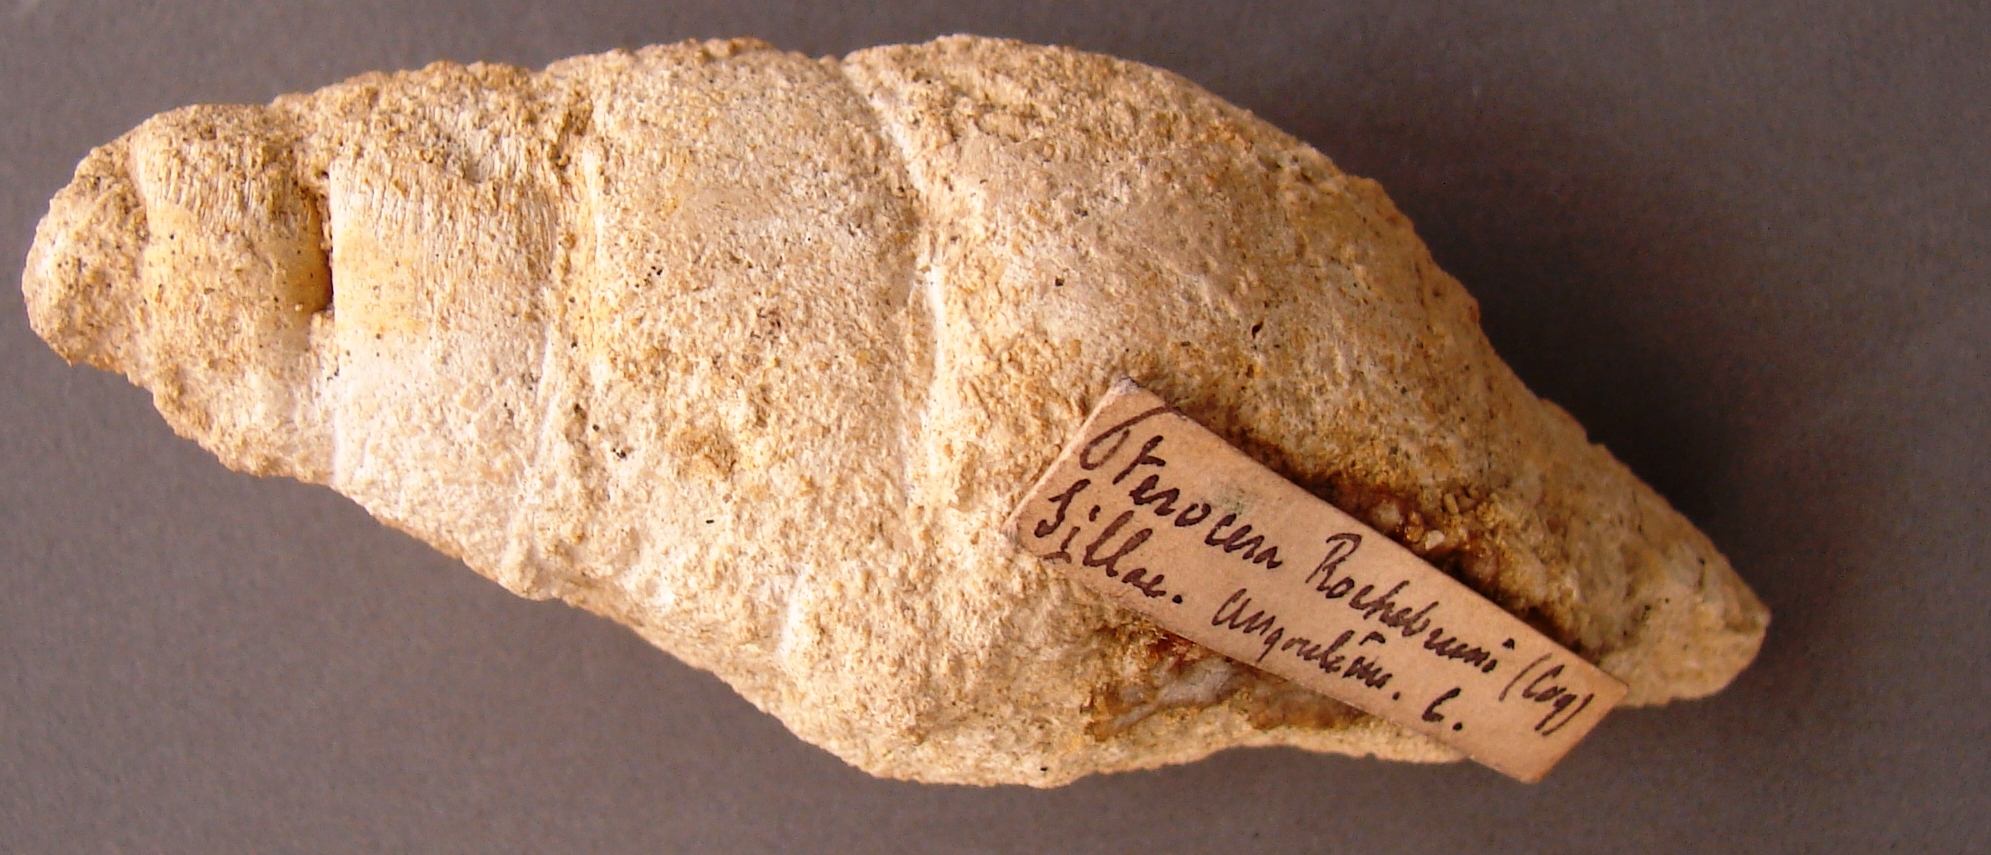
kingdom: Animalia
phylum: Arthropoda
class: Insecta
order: Diptera
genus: Pterocera
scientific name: Pterocera
